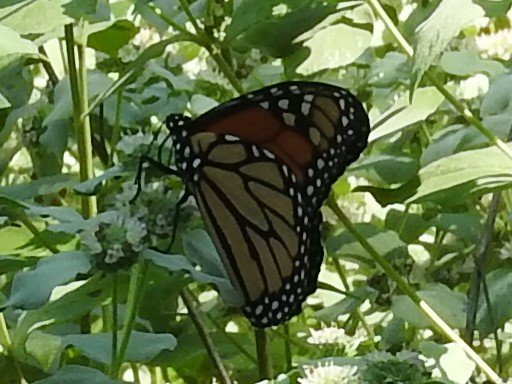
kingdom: Animalia
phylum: Arthropoda
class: Insecta
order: Lepidoptera
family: Nymphalidae
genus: Danaus
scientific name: Danaus plexippus
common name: Monarch
